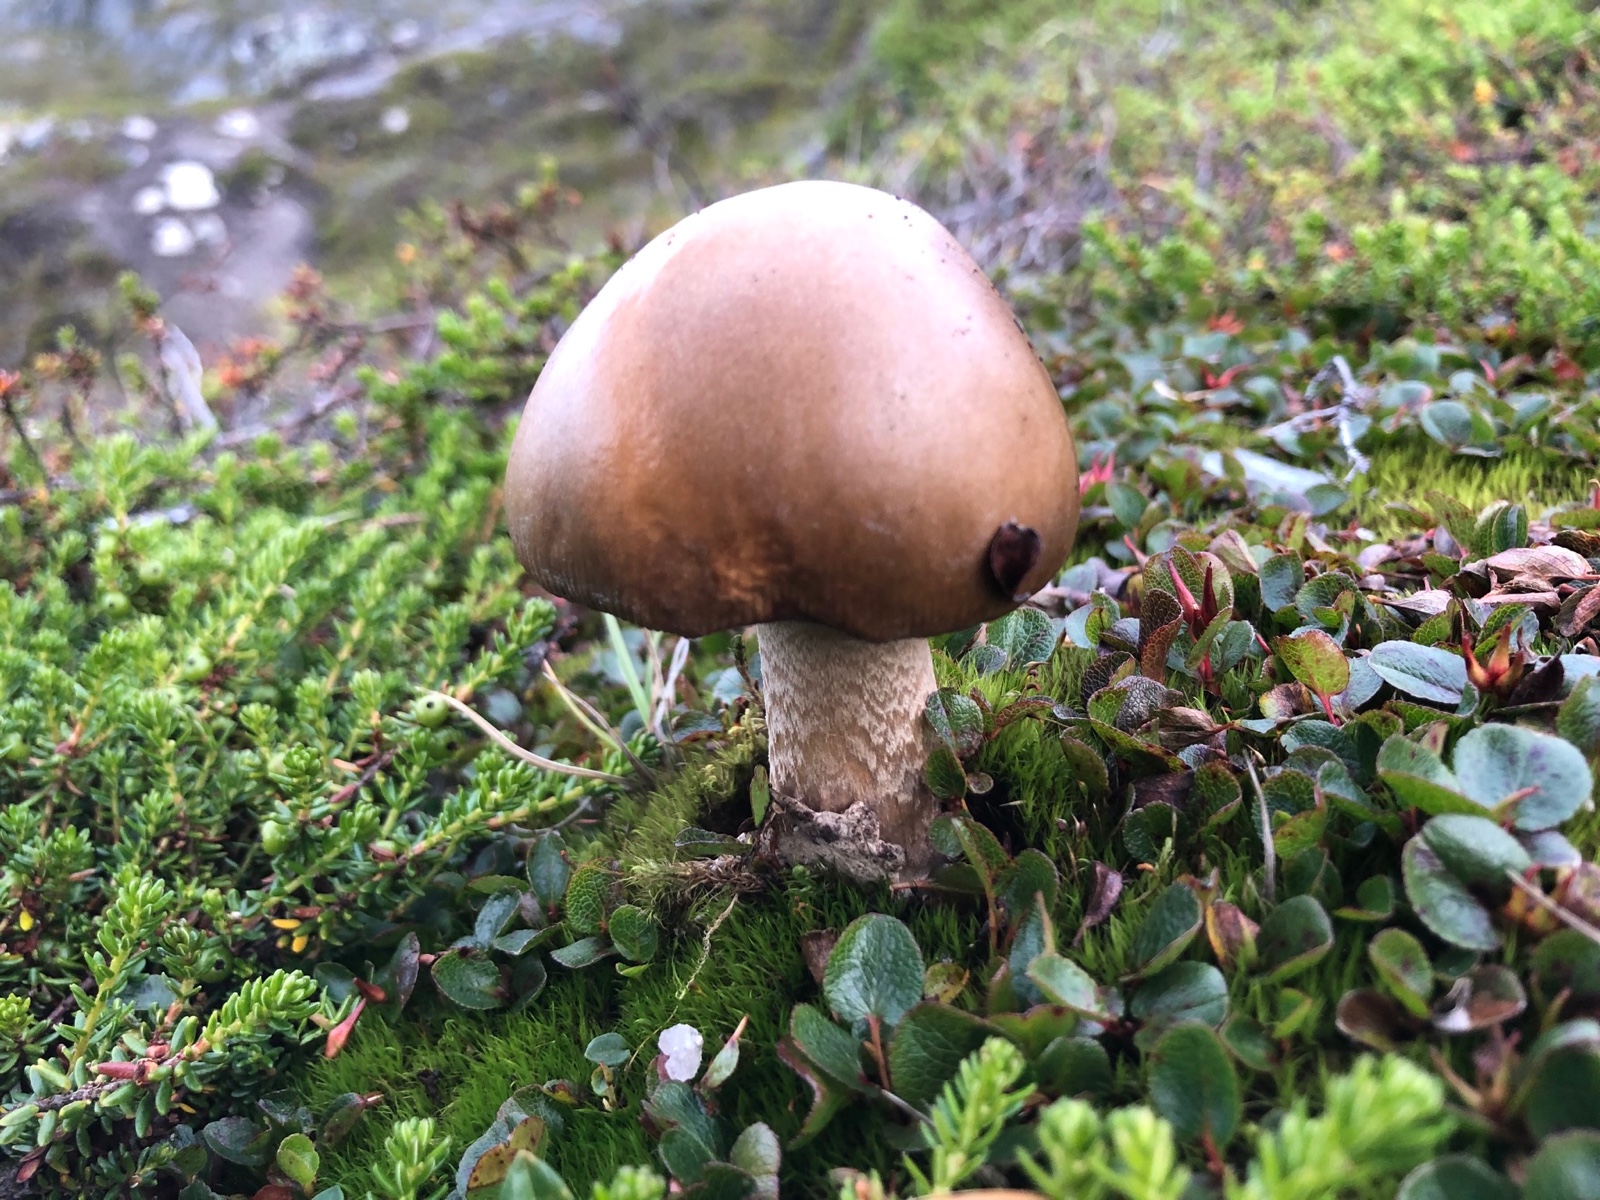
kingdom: Fungi
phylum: Basidiomycota
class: Agaricomycetes
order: Agaricales
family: Amanitaceae
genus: Amanita
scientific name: Amanita groenlandica
